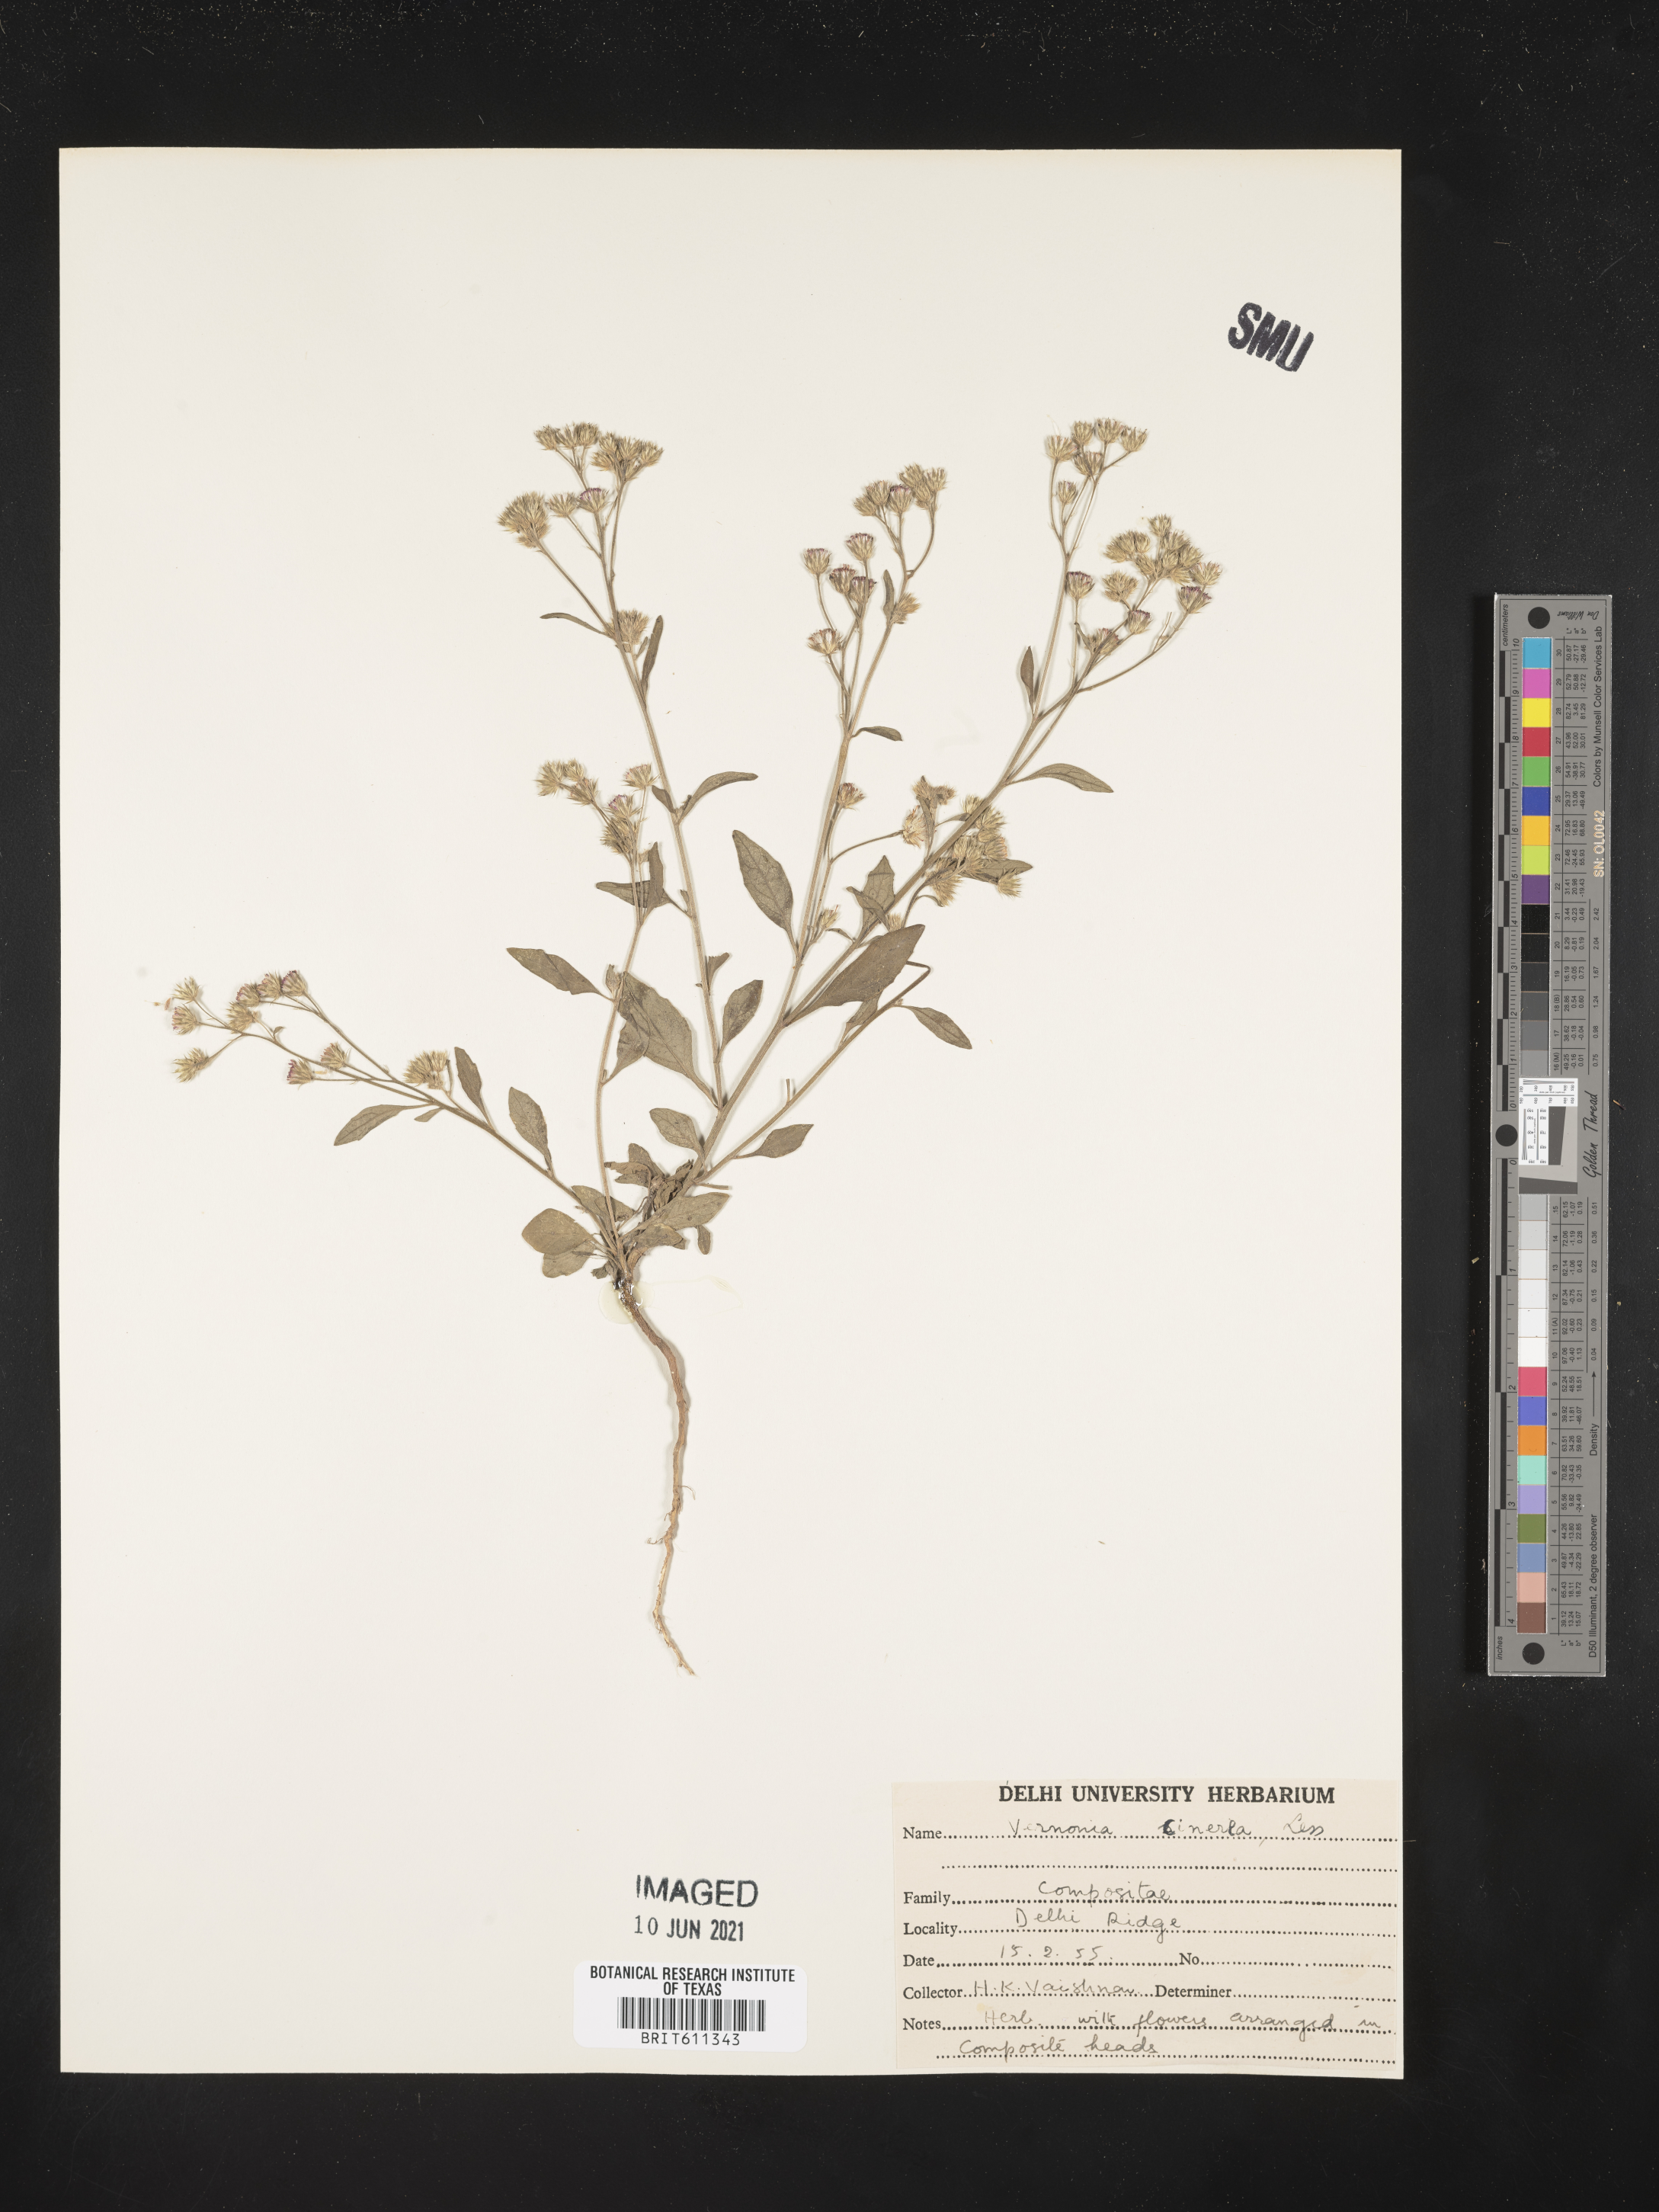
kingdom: Plantae
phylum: Tracheophyta
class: Magnoliopsida
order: Asterales
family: Asteraceae
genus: Cyanthillium
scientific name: Cyanthillium cinereum
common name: Little ironweed
